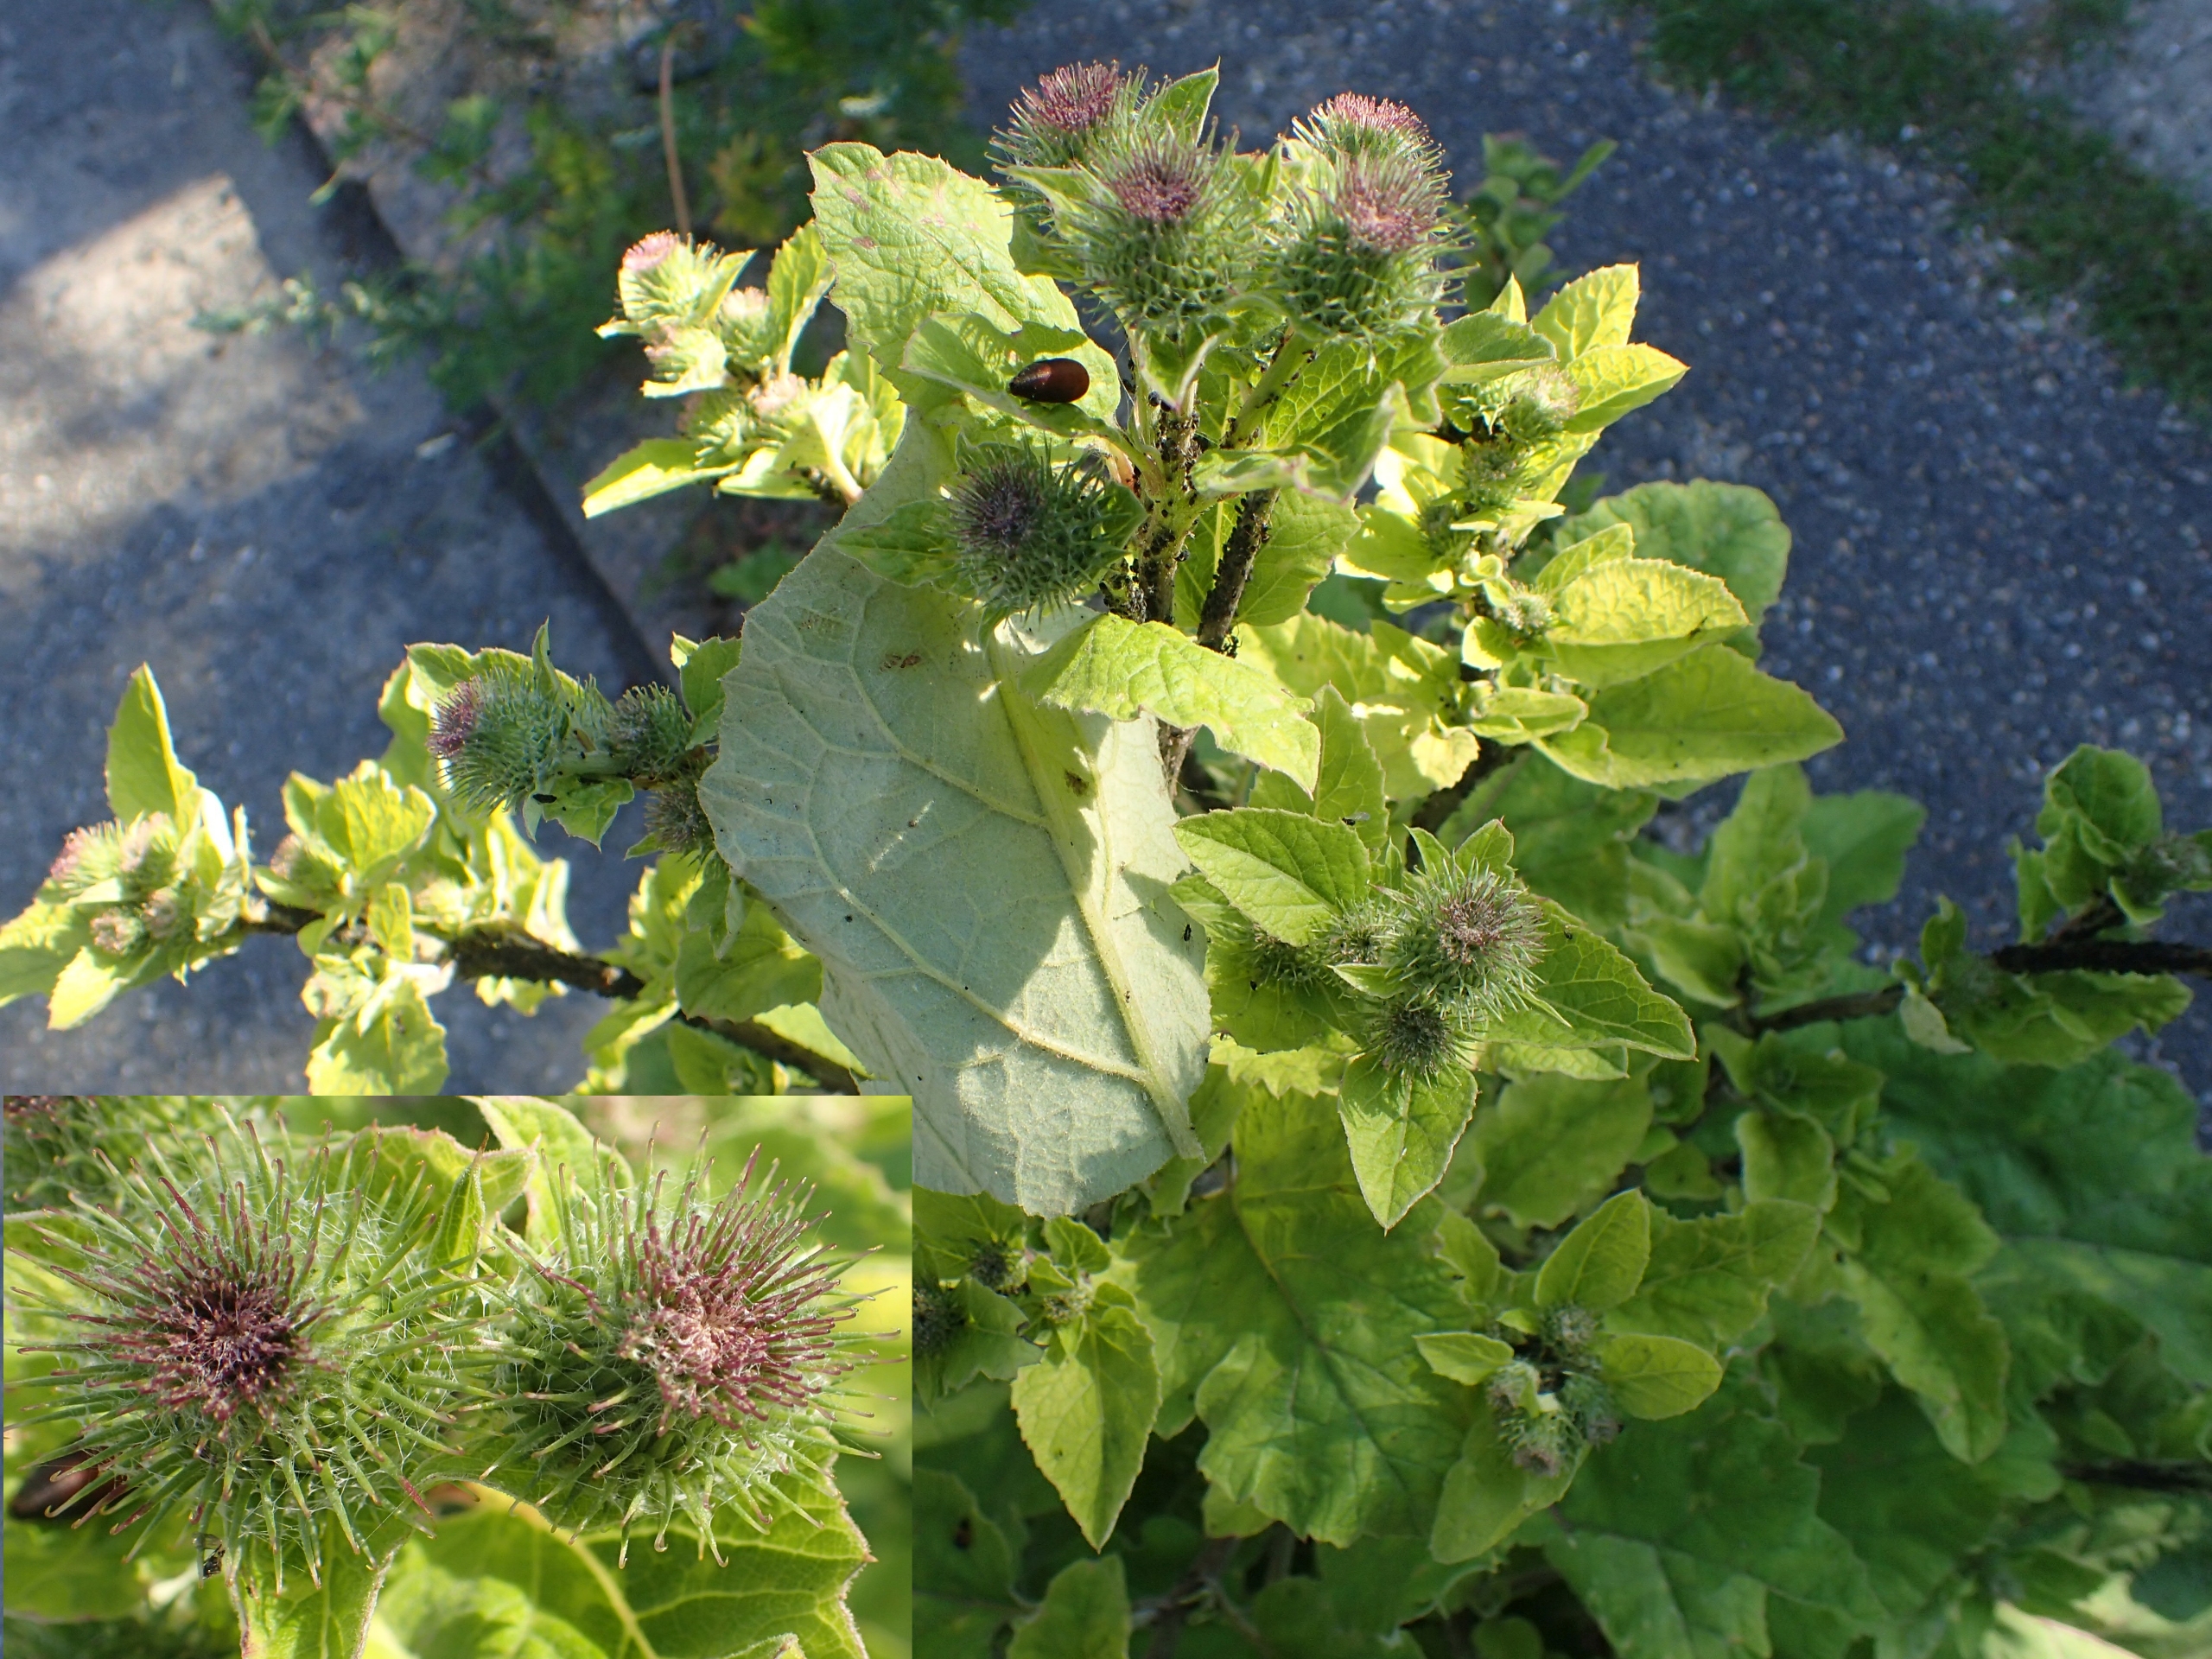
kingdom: Plantae
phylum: Tracheophyta
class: Magnoliopsida
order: Asterales
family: Asteraceae
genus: Arctium
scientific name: Arctium minus
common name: Liden burre
